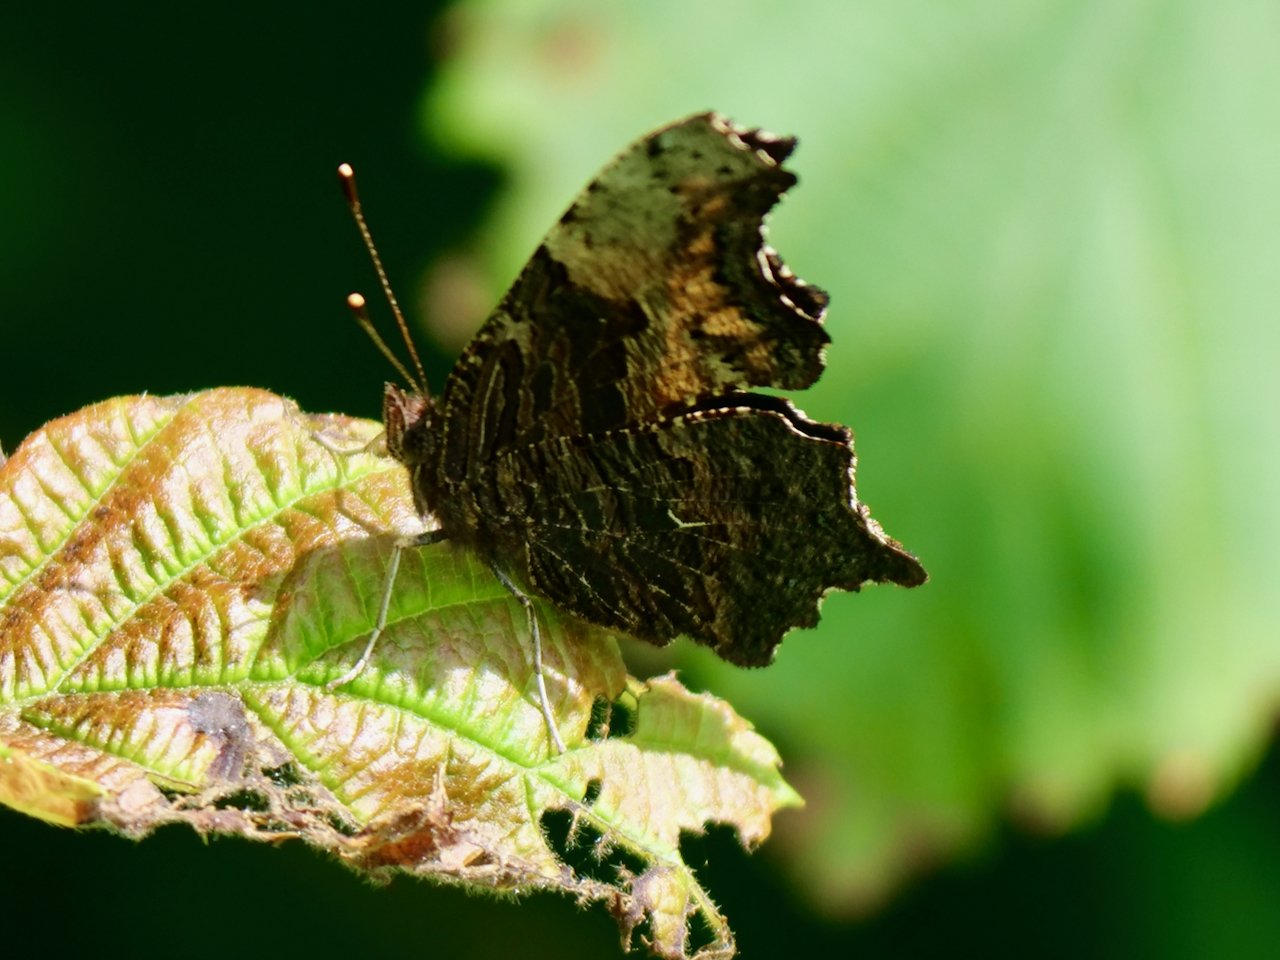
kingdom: Animalia
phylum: Arthropoda
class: Insecta
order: Lepidoptera
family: Nymphalidae
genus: Polygonia
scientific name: Polygonia progne
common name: Gray Comma
